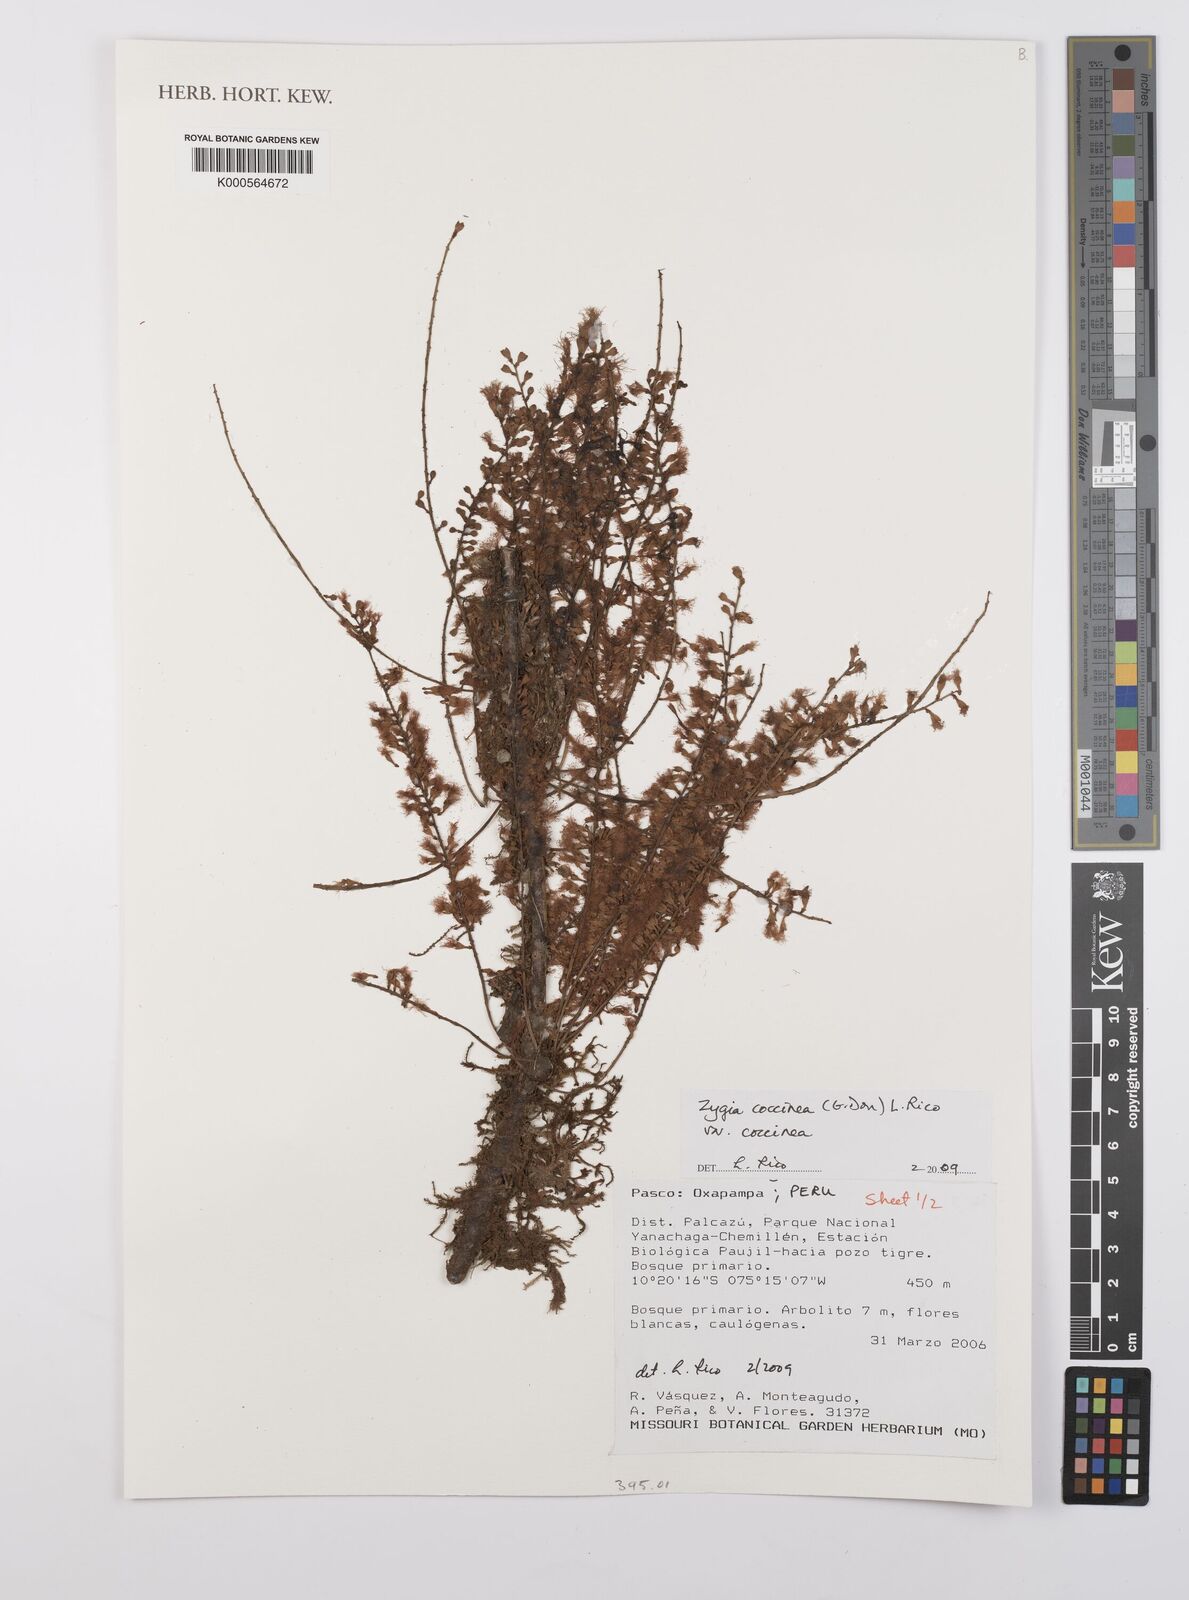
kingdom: Plantae
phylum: Tracheophyta
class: Magnoliopsida
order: Fabales
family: Fabaceae
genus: Zygia
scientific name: Zygia coccinea
